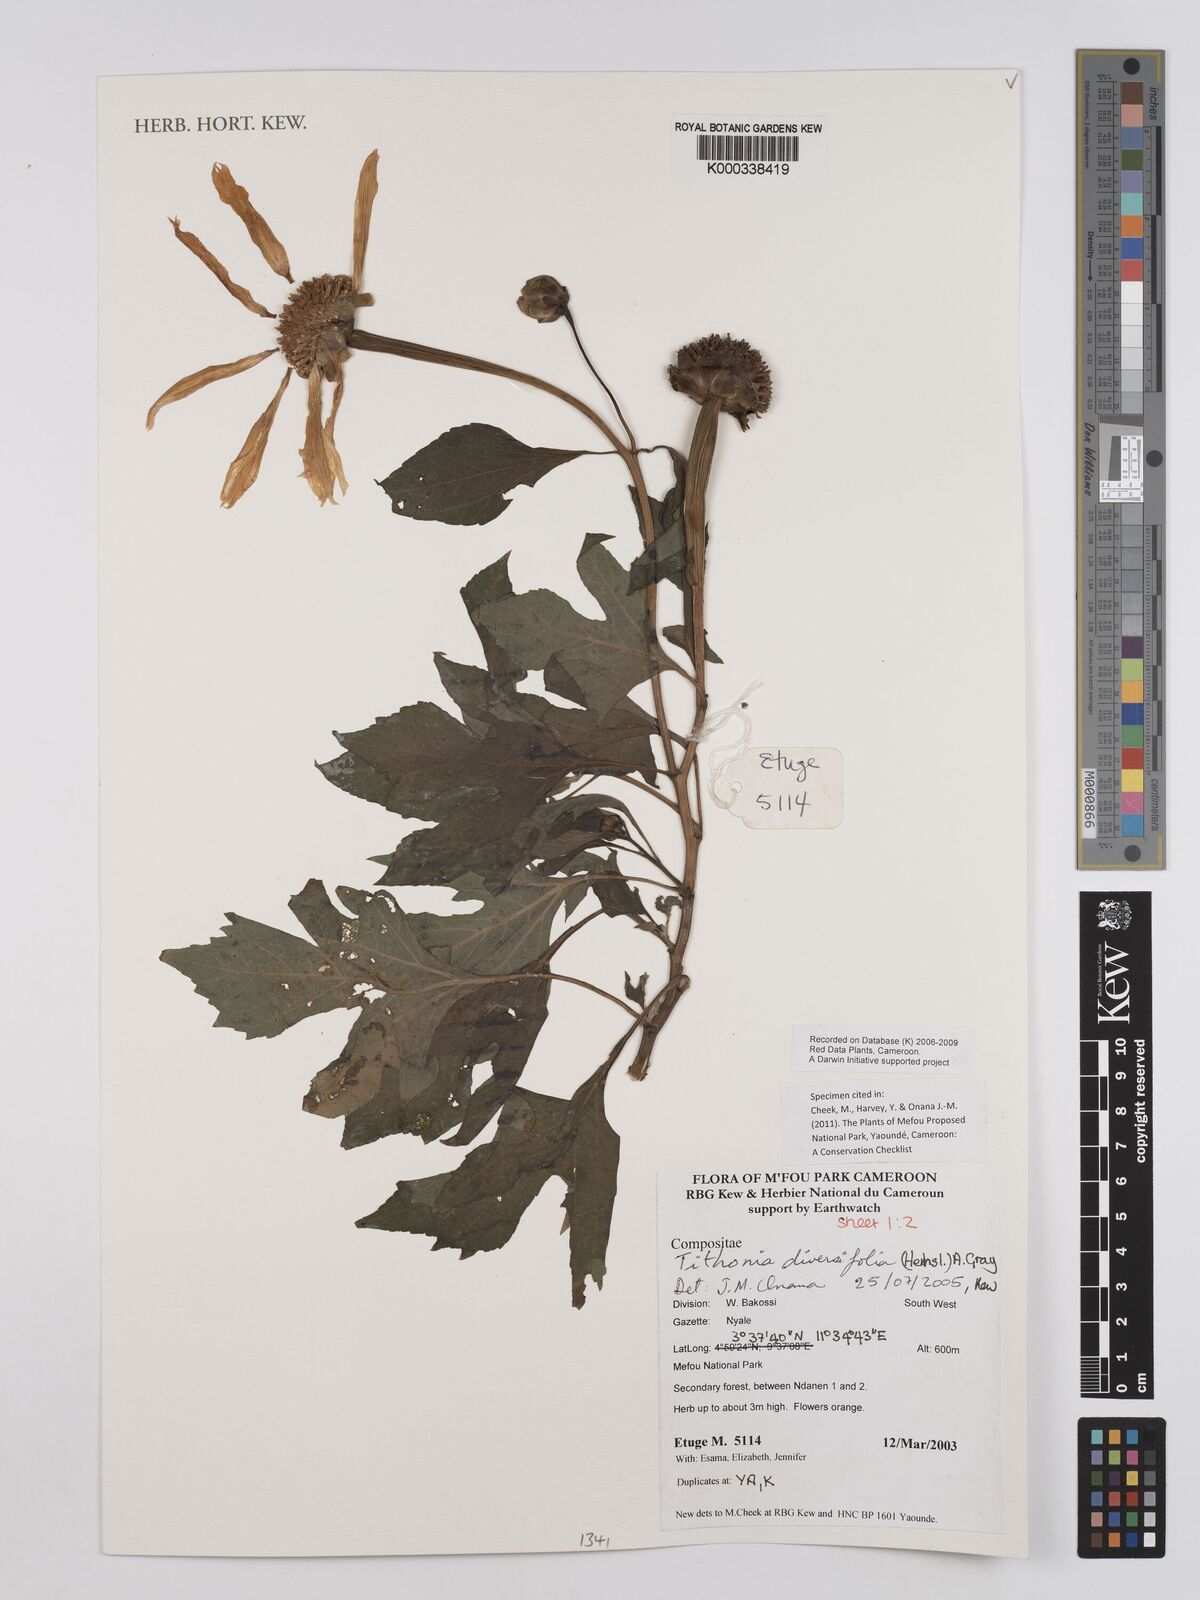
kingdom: Plantae
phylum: Tracheophyta
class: Magnoliopsida
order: Asterales
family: Asteraceae
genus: Tithonia
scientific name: Tithonia diversifolia
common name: Tree marigold
